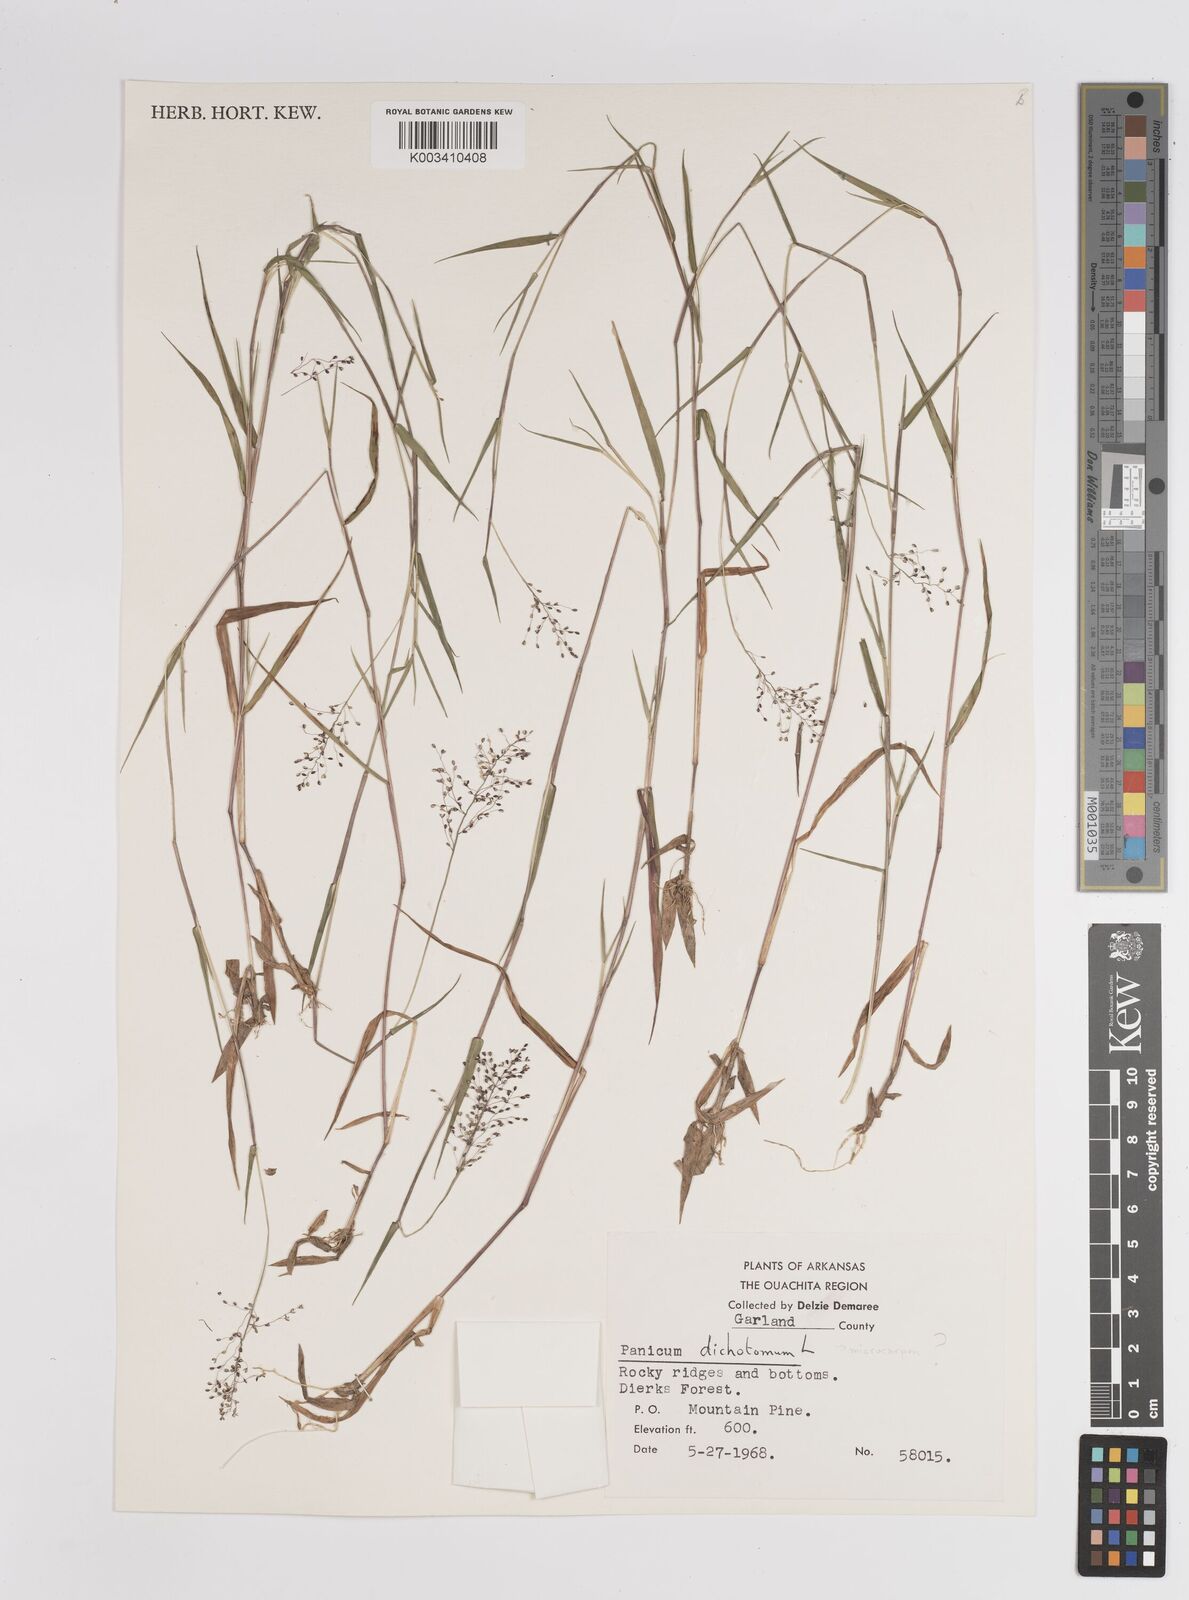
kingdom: Plantae
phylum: Tracheophyta
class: Liliopsida
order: Poales
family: Poaceae
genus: Dichanthelium
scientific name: Dichanthelium dichotomum
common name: Cypress panicgrass
